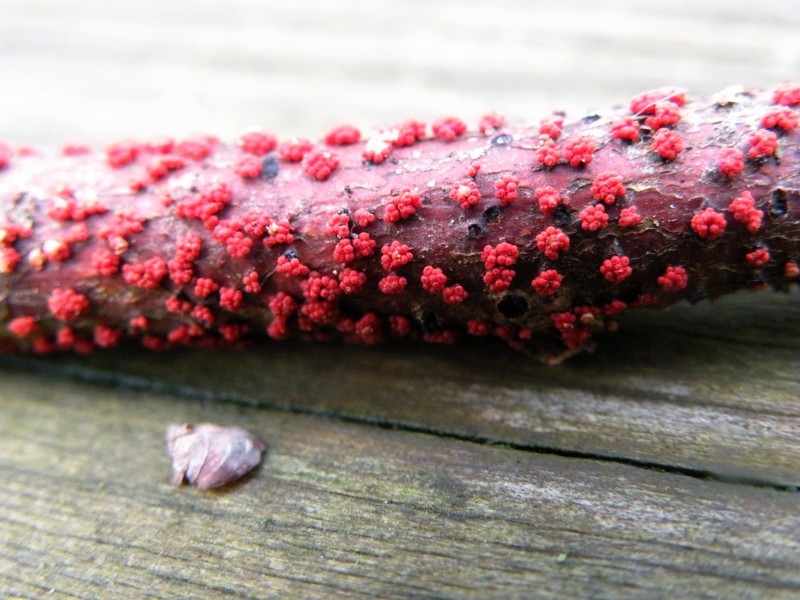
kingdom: Fungi
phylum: Ascomycota
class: Sordariomycetes
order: Hypocreales
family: Nectriaceae
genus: Nectria
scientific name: Nectria cinnabarina
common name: almindelig cinnobersvamp
